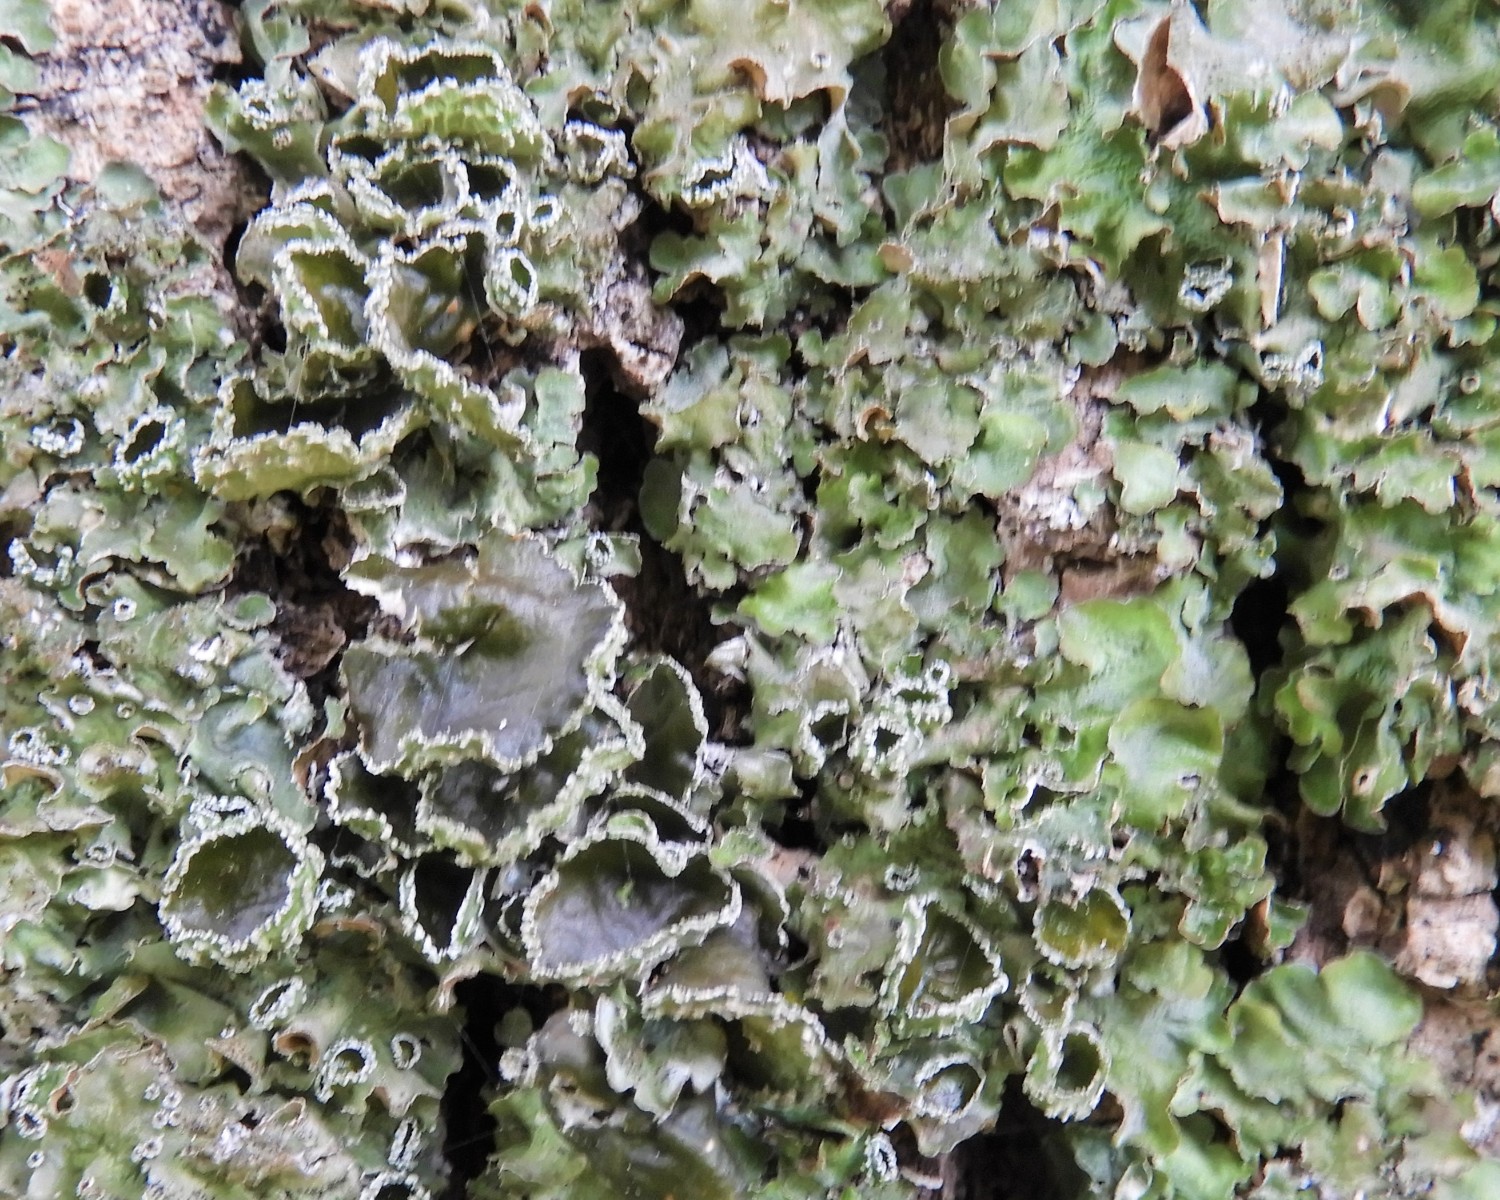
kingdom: Fungi
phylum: Ascomycota
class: Lecanoromycetes
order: Lecanorales
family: Parmeliaceae
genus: Pleurosticta
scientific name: Pleurosticta acetabulum
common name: stor skållav
